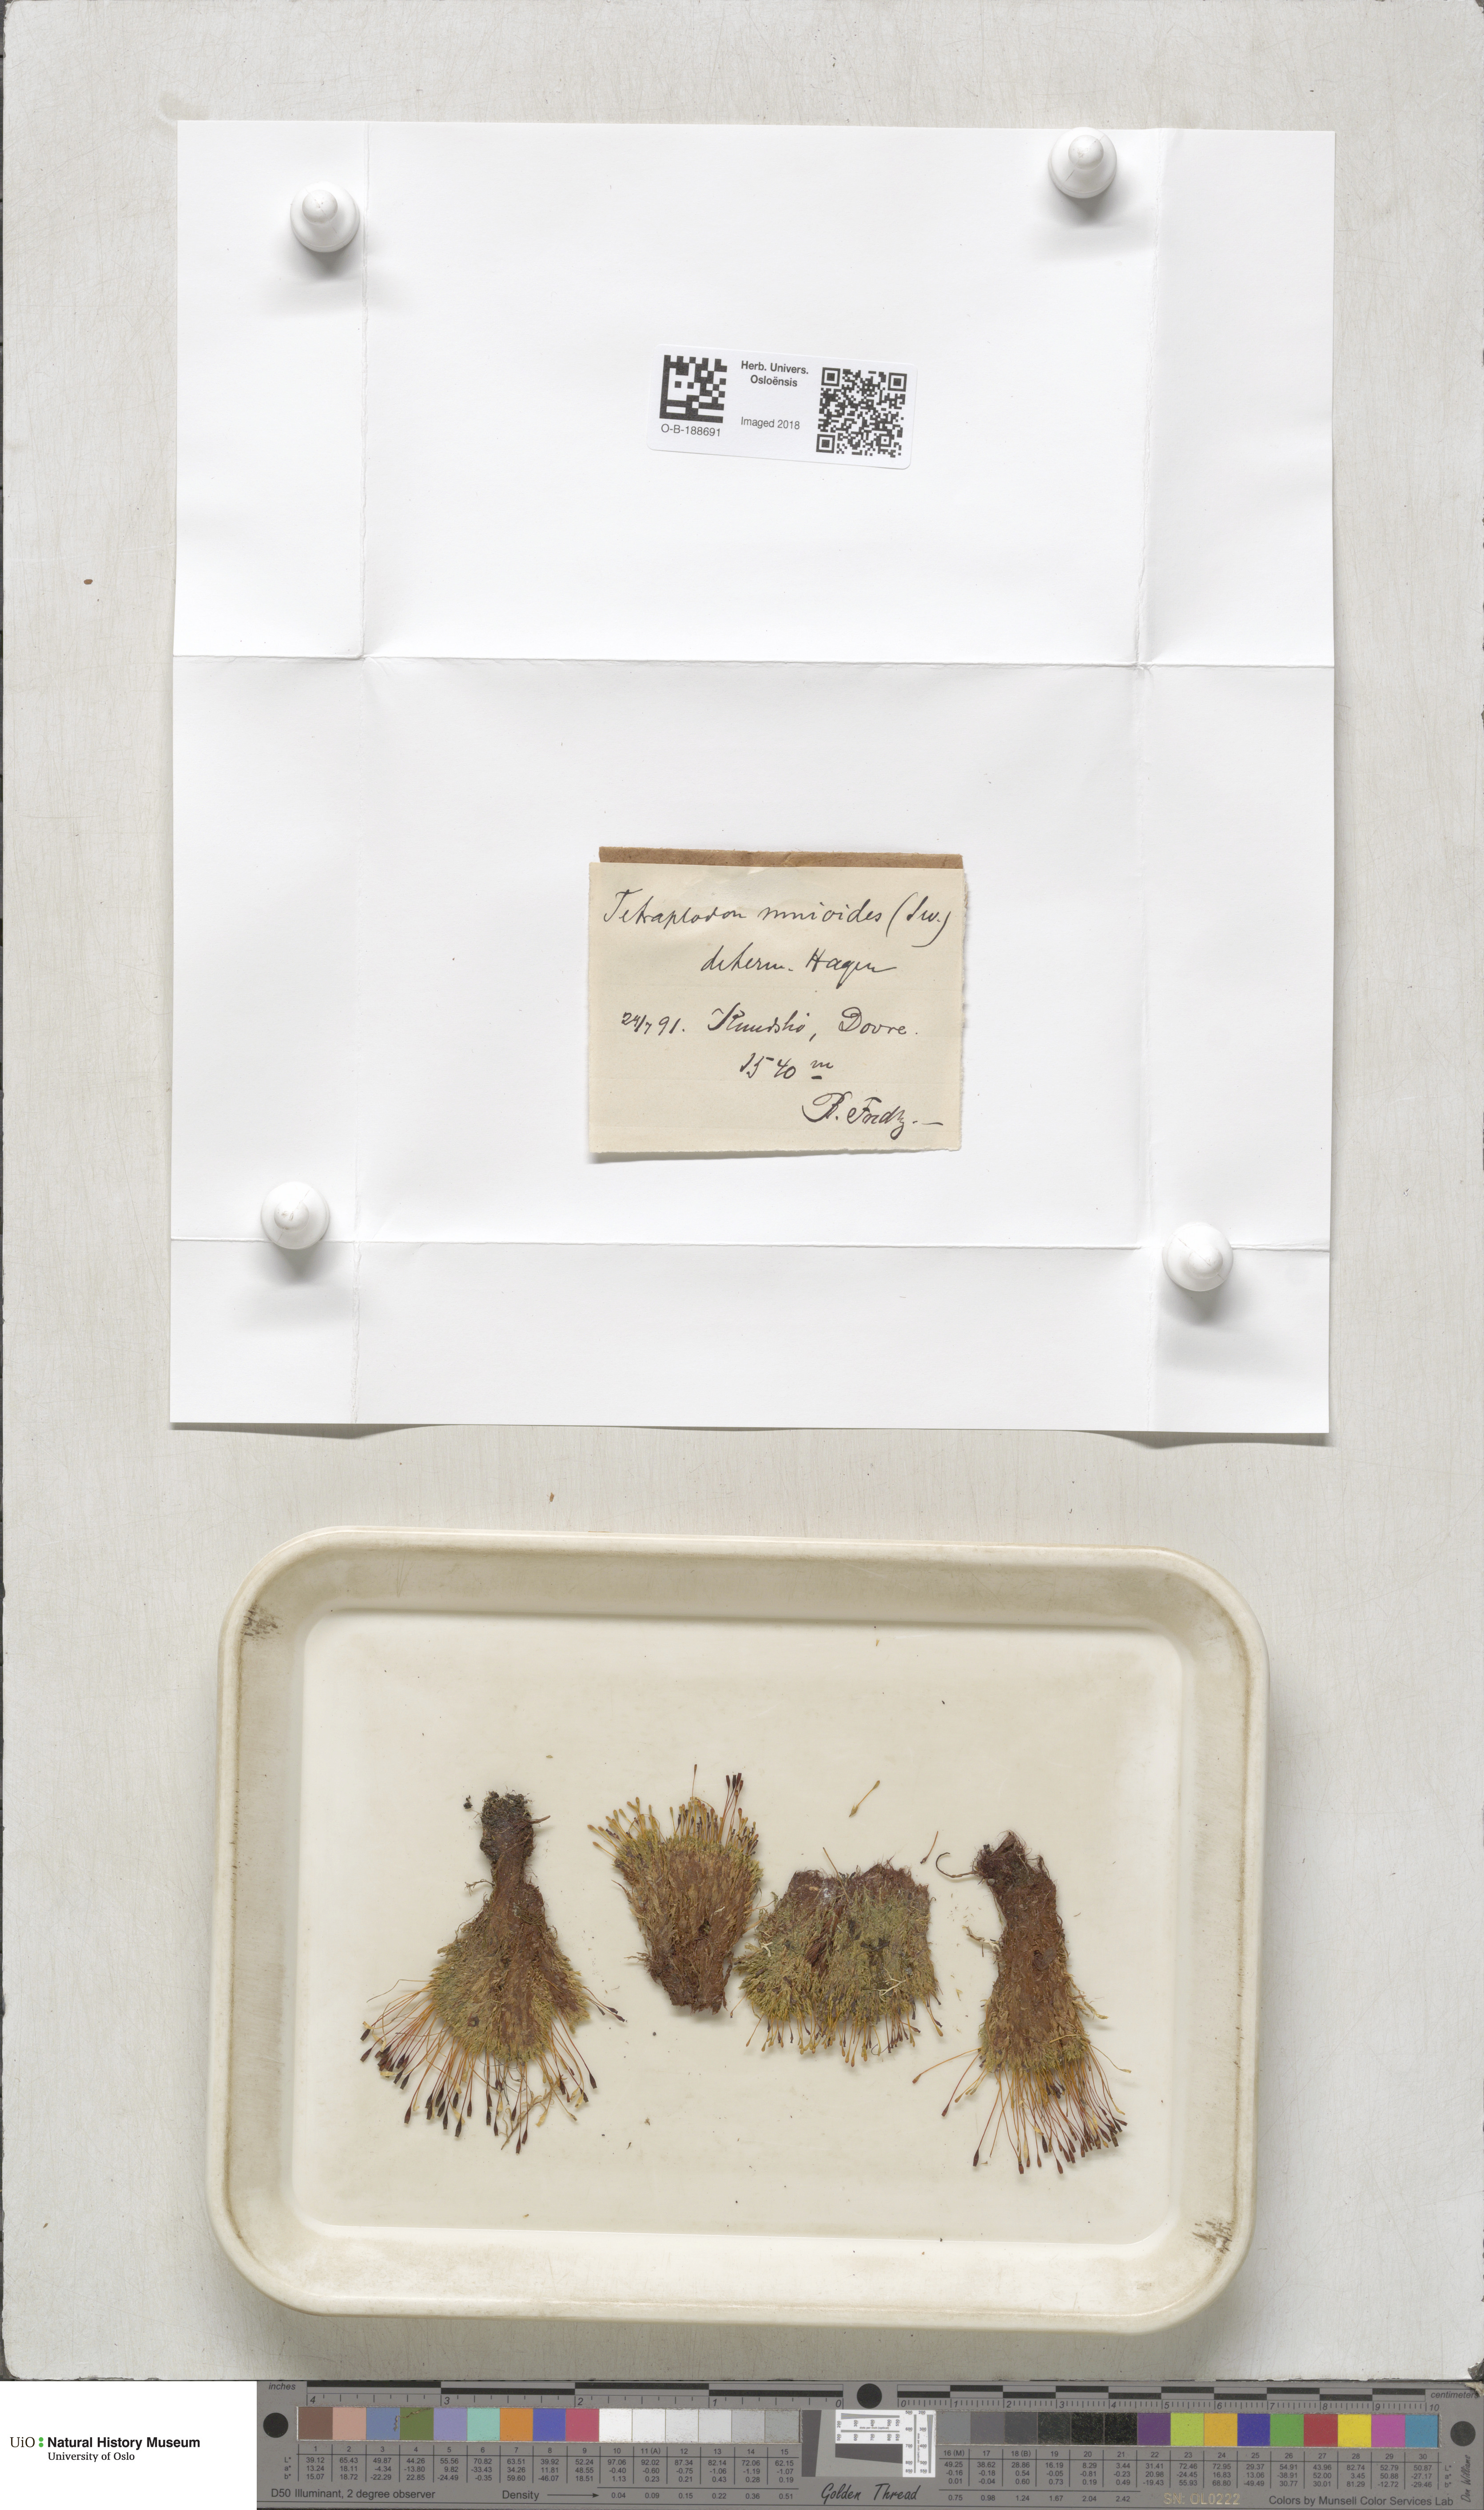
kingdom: Plantae
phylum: Bryophyta
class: Bryopsida
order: Splachnales
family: Splachnaceae
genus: Tetraplodon
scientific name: Tetraplodon mnioides
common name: Entire-leaved nitrogen moss
